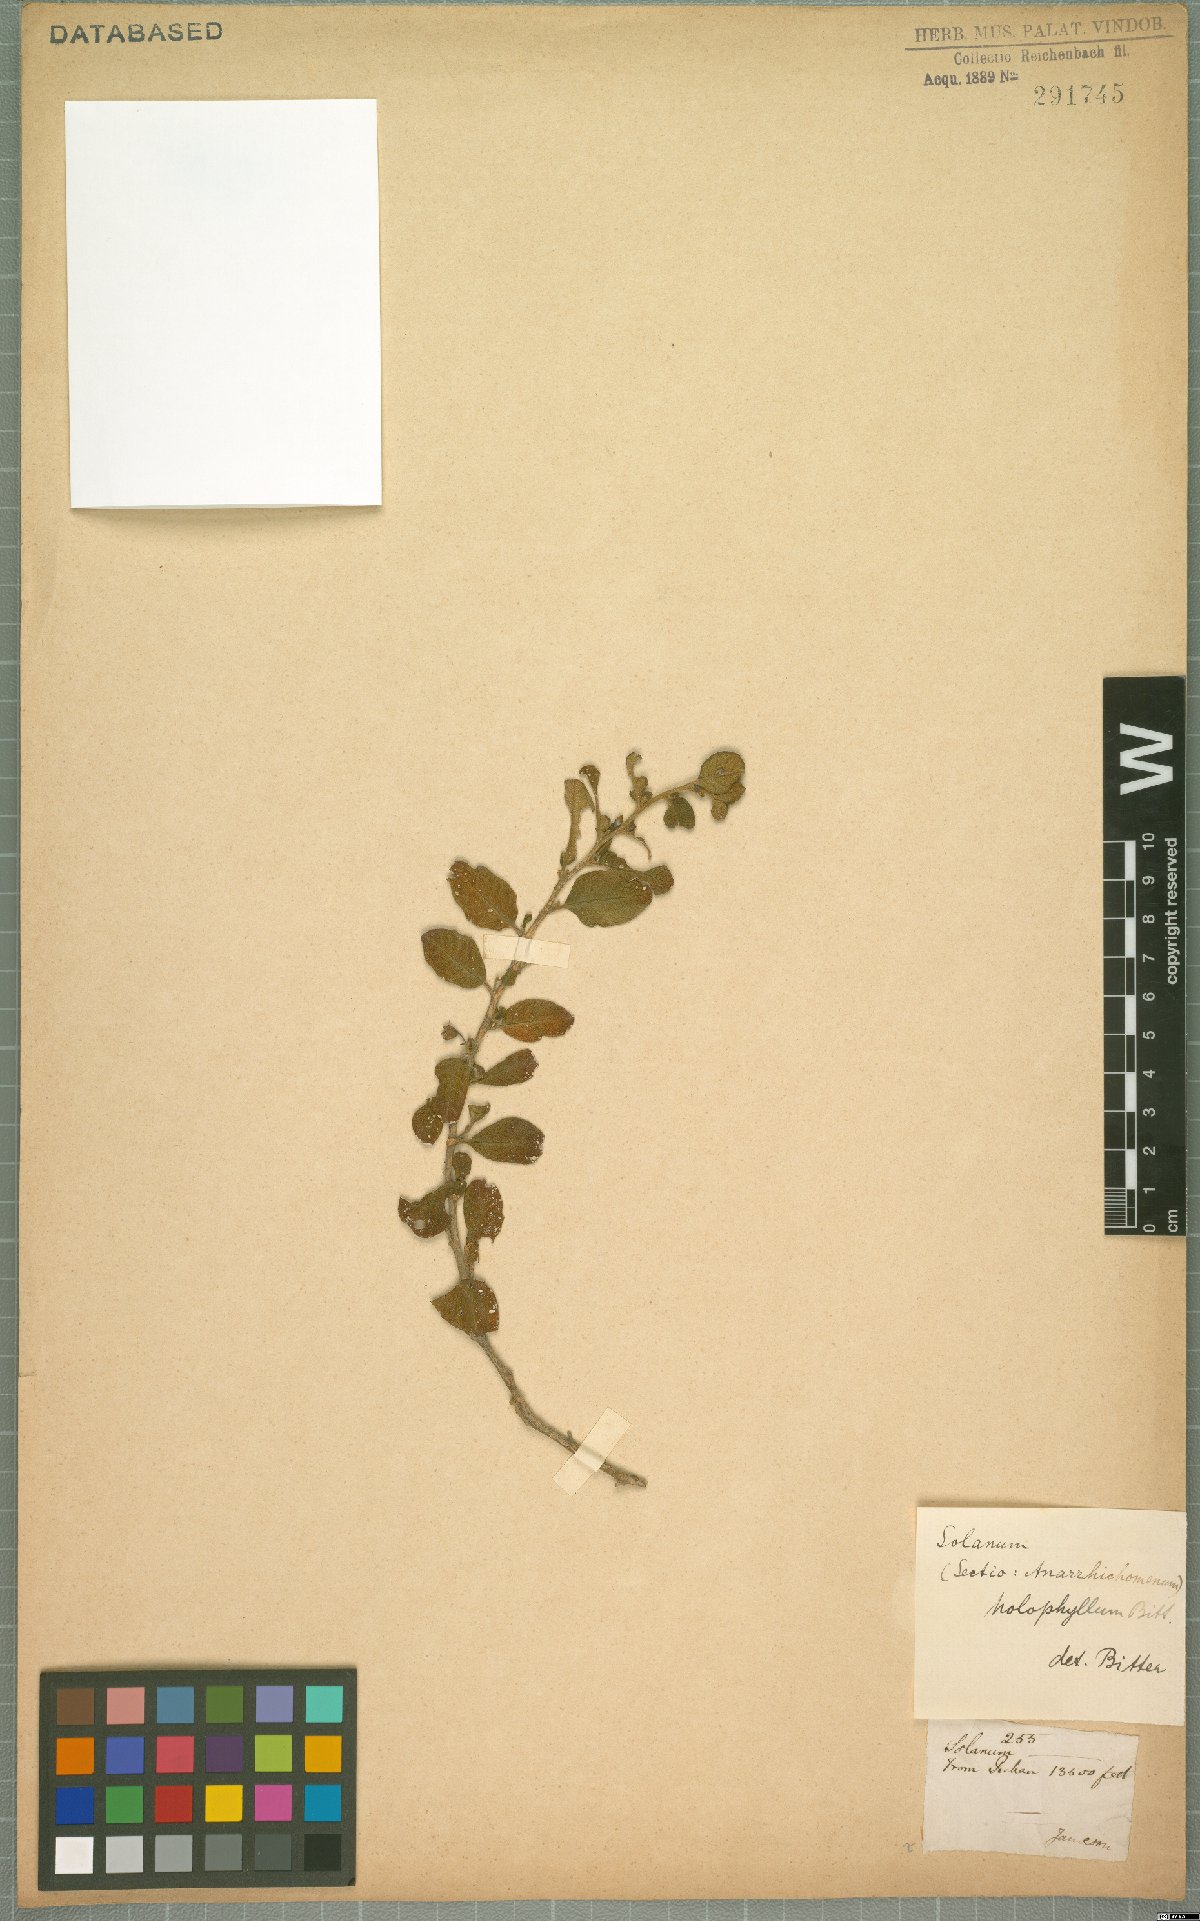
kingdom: Plantae
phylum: Tracheophyta
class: Magnoliopsida
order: Solanales
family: Solanaceae
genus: Solanum
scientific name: Solanum brevifolium
